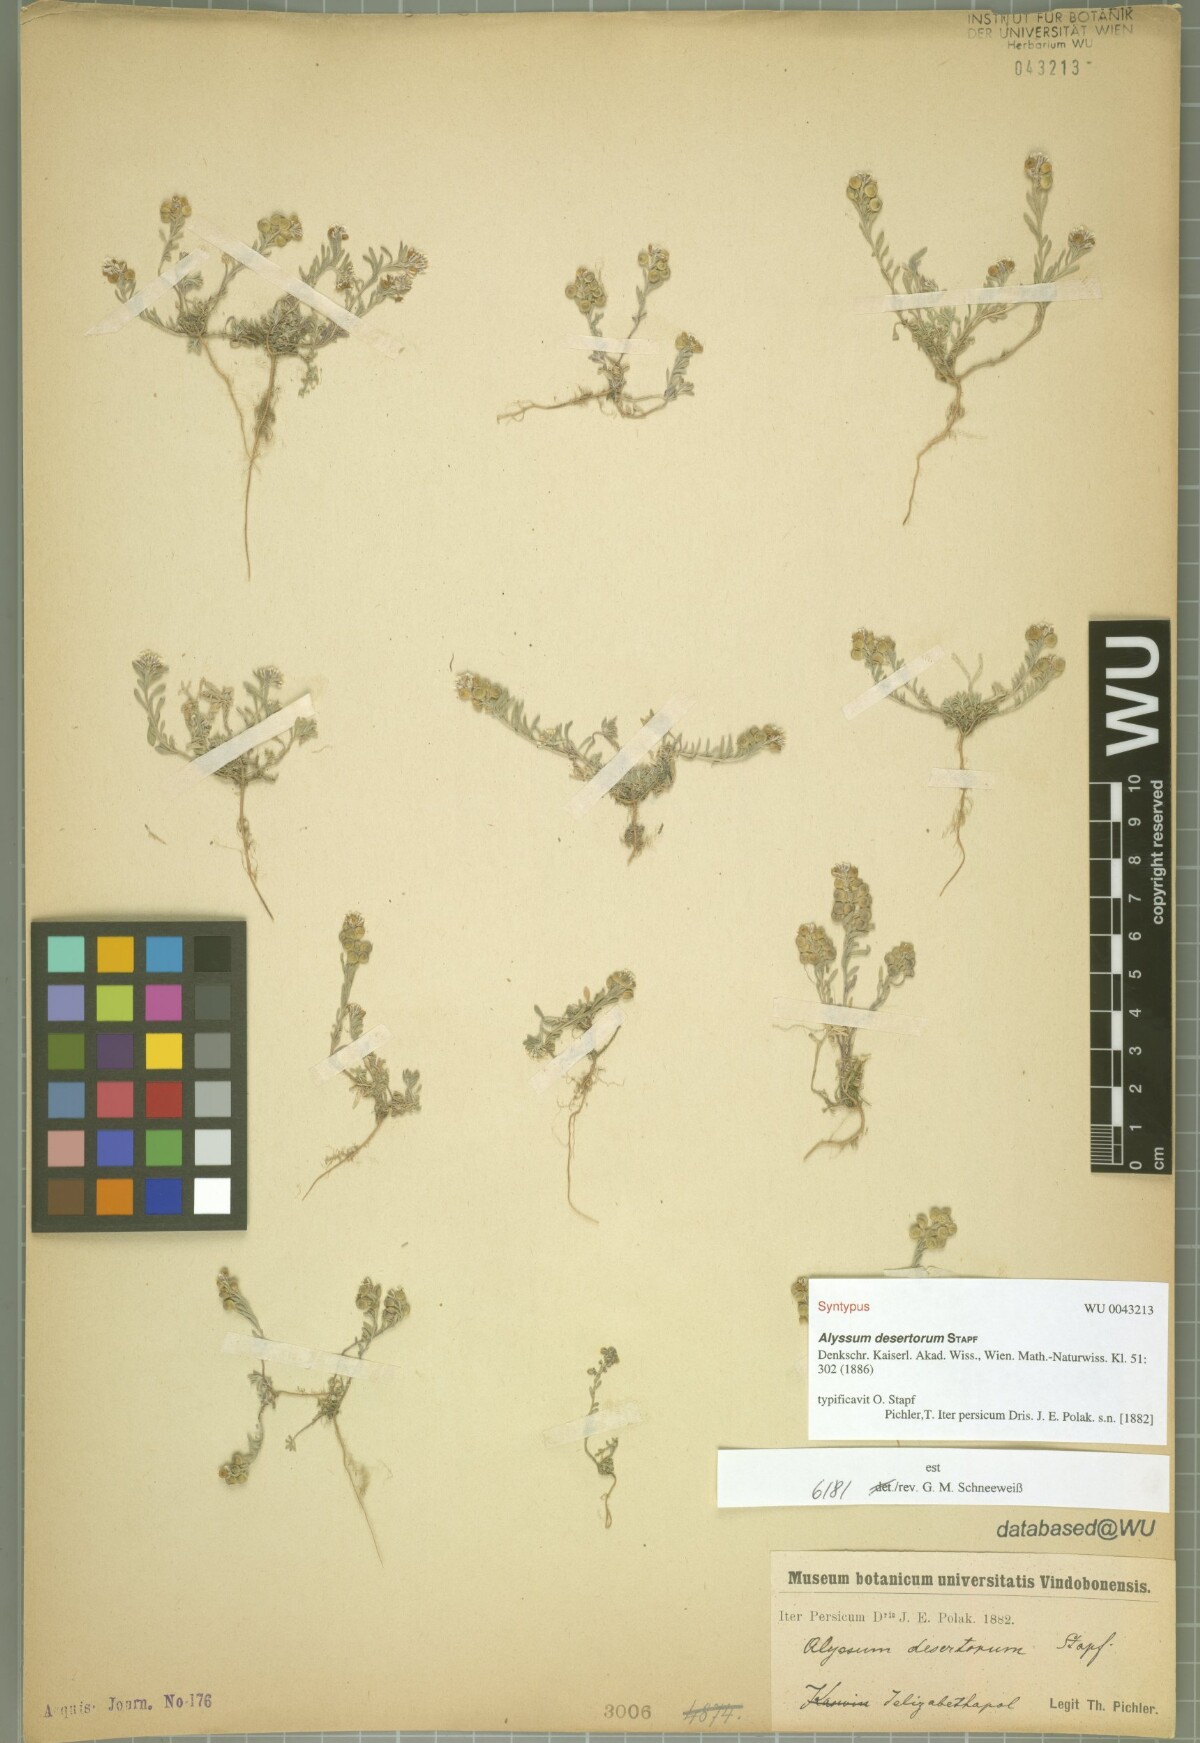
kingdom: Plantae
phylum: Tracheophyta
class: Magnoliopsida
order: Brassicales
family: Brassicaceae
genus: Alyssum
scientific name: Alyssum turkestanicum
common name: Desert alyssum
